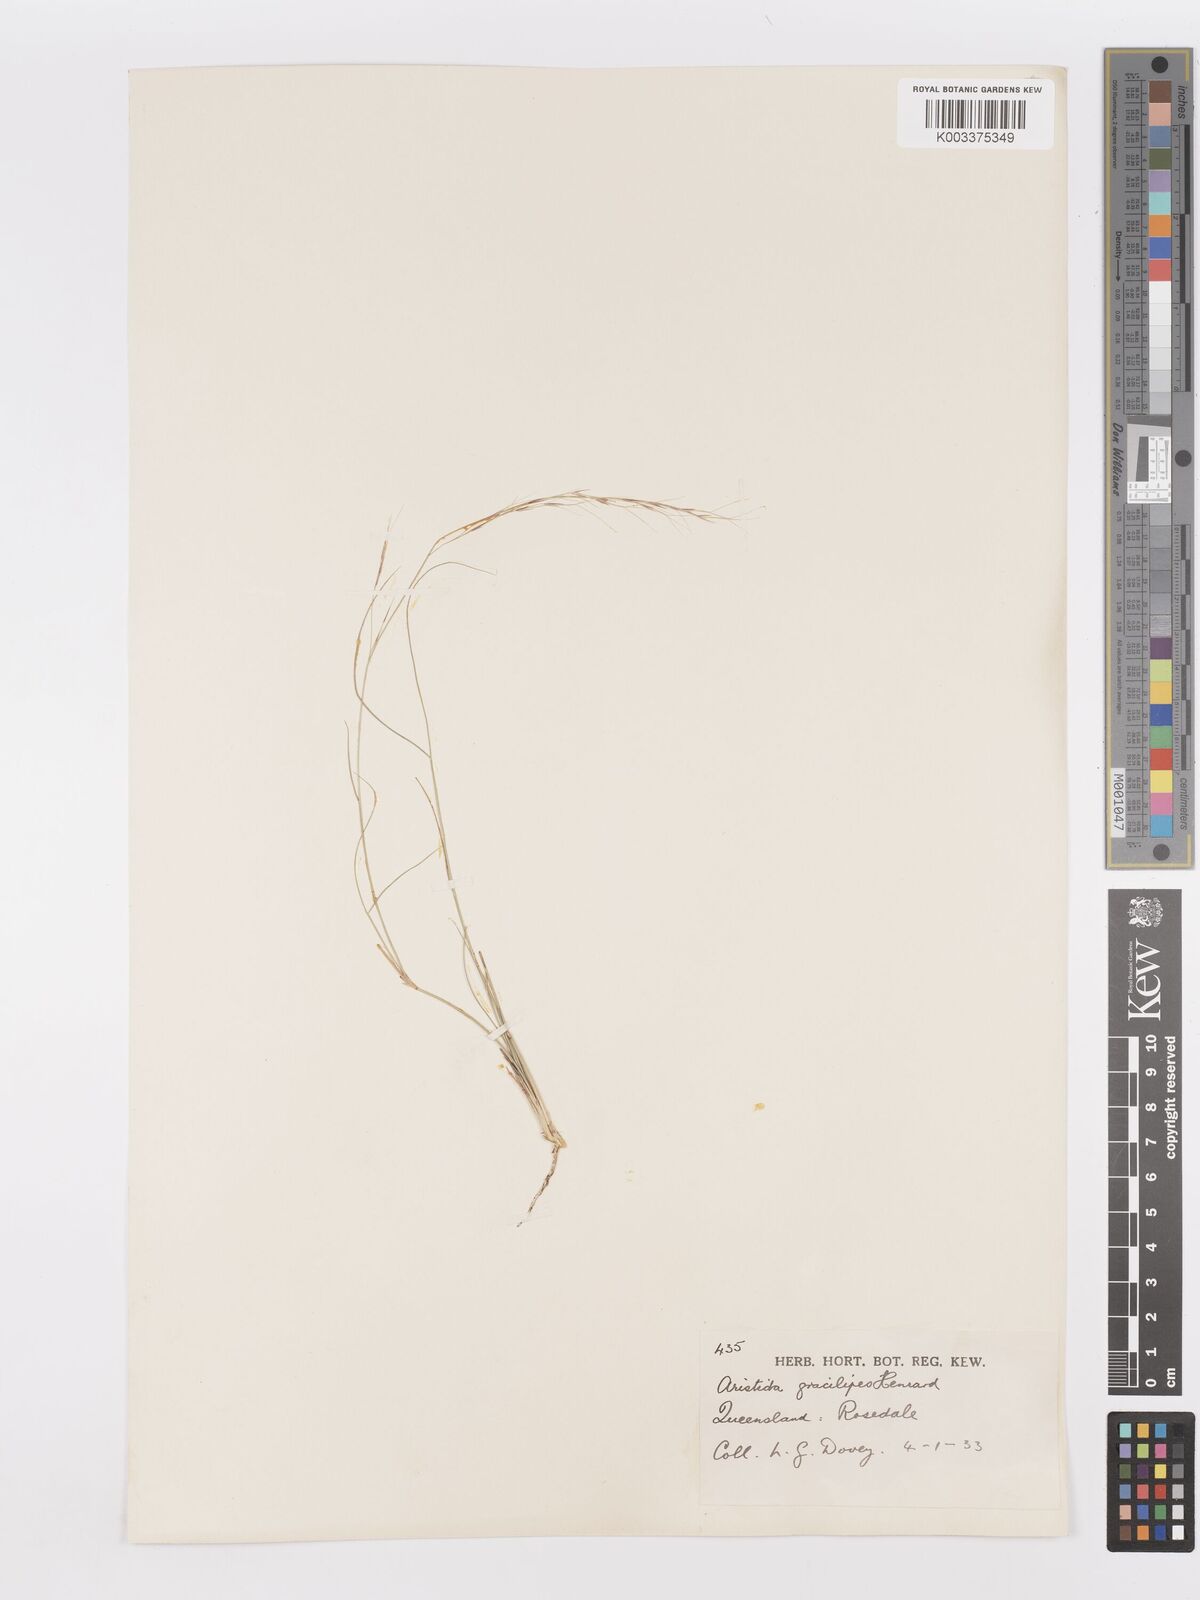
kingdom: Plantae
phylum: Tracheophyta
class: Liliopsida
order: Poales
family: Poaceae
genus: Aristida
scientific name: Aristida gracilipes
